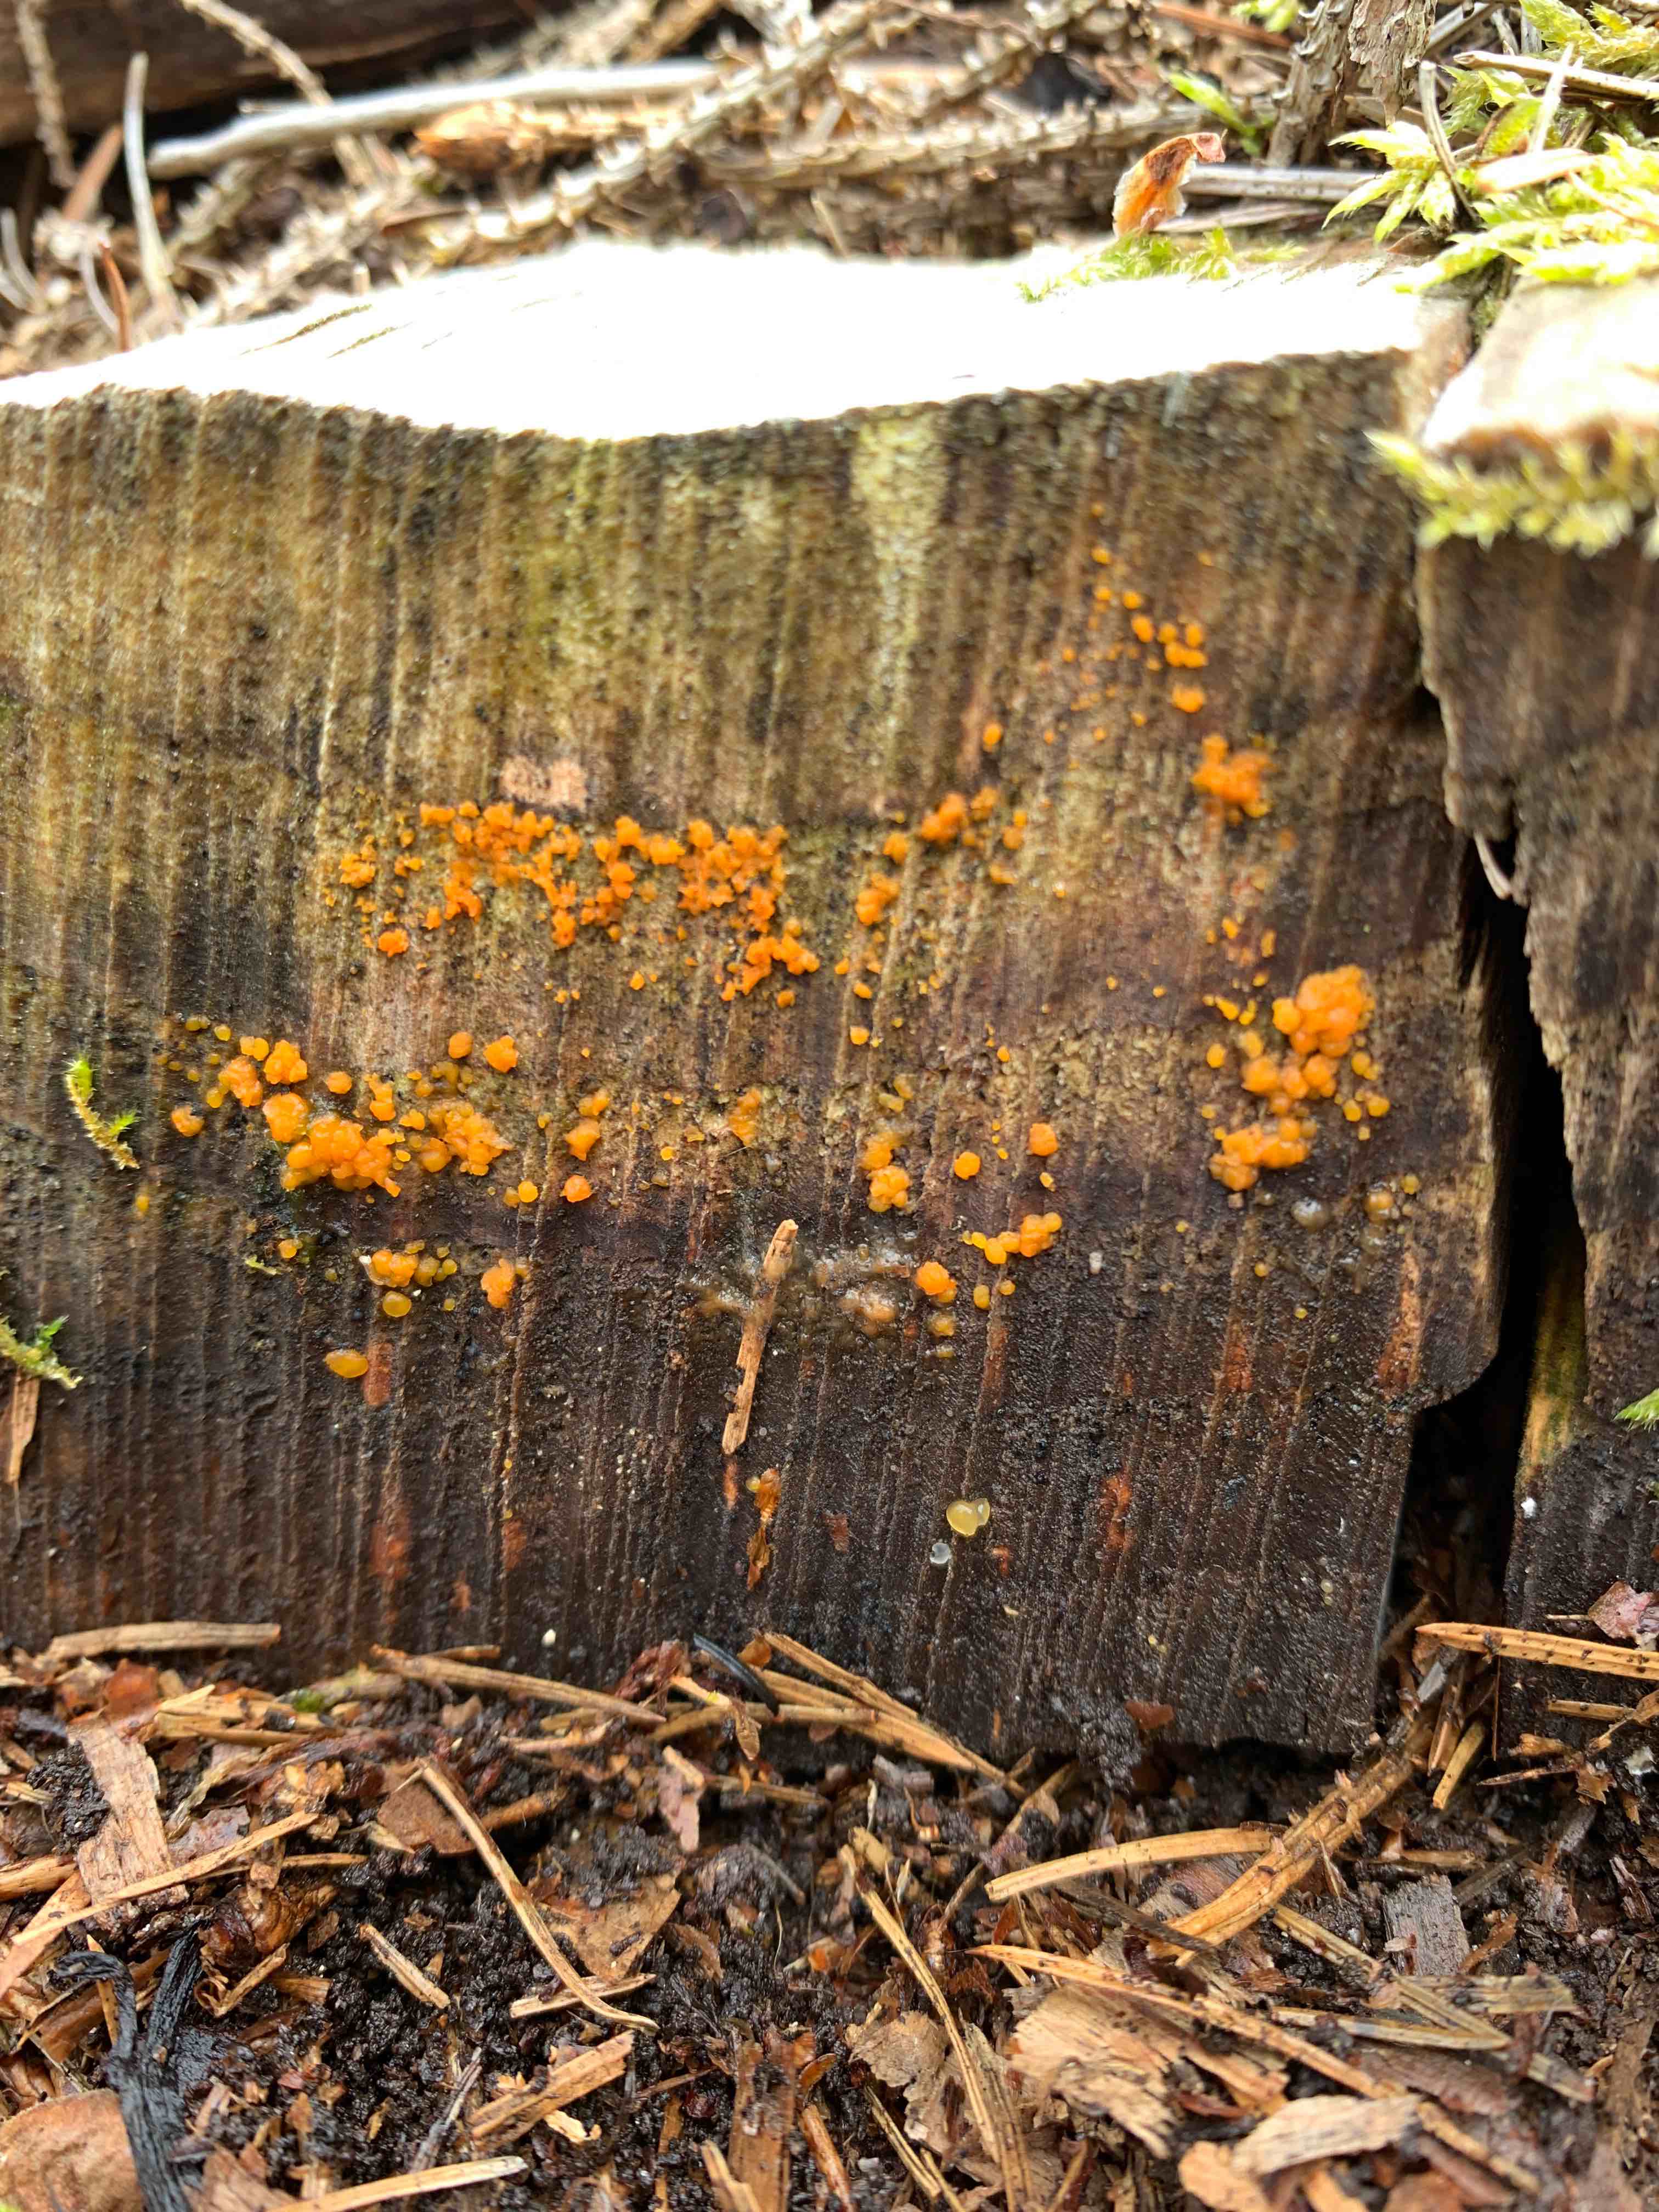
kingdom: Fungi
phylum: Basidiomycota
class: Dacrymycetes
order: Dacrymycetales
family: Dacrymycetaceae
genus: Dacrymyces
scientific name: Dacrymyces stillatus
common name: almindelig tåresvamp
